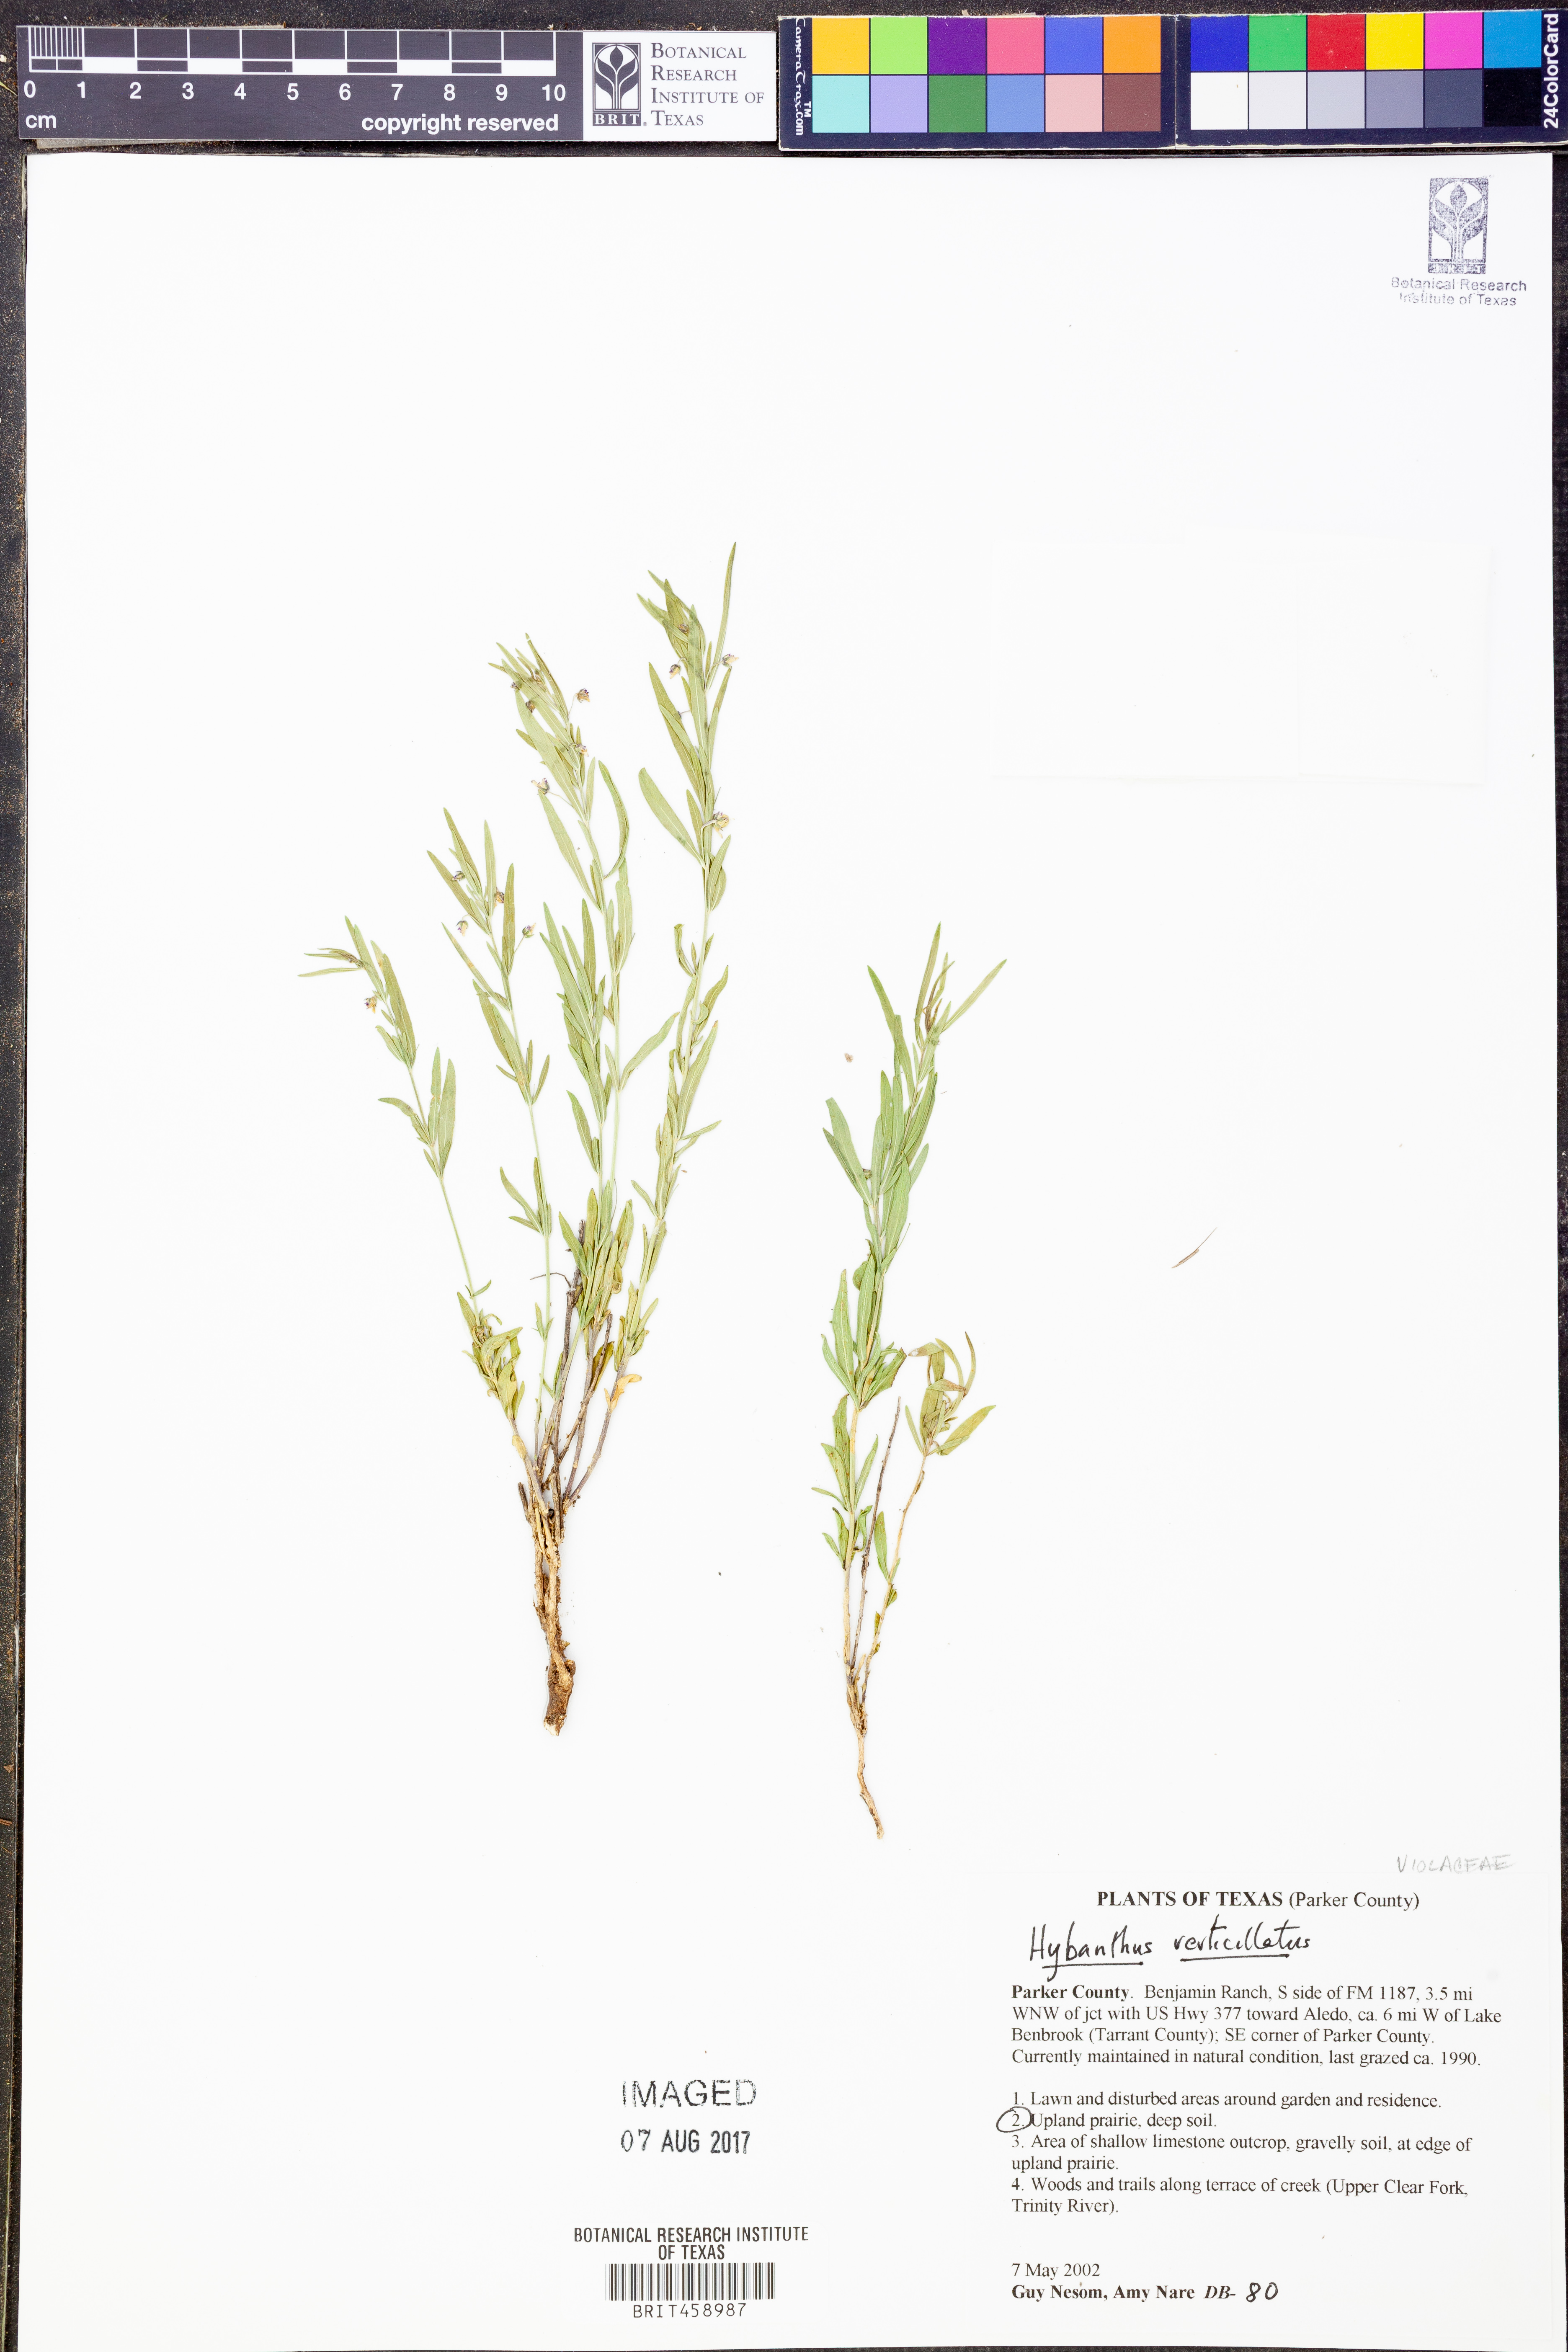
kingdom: Plantae
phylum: Tracheophyta
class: Magnoliopsida
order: Malpighiales
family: Violaceae
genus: Pombalia
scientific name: Pombalia verticillata
